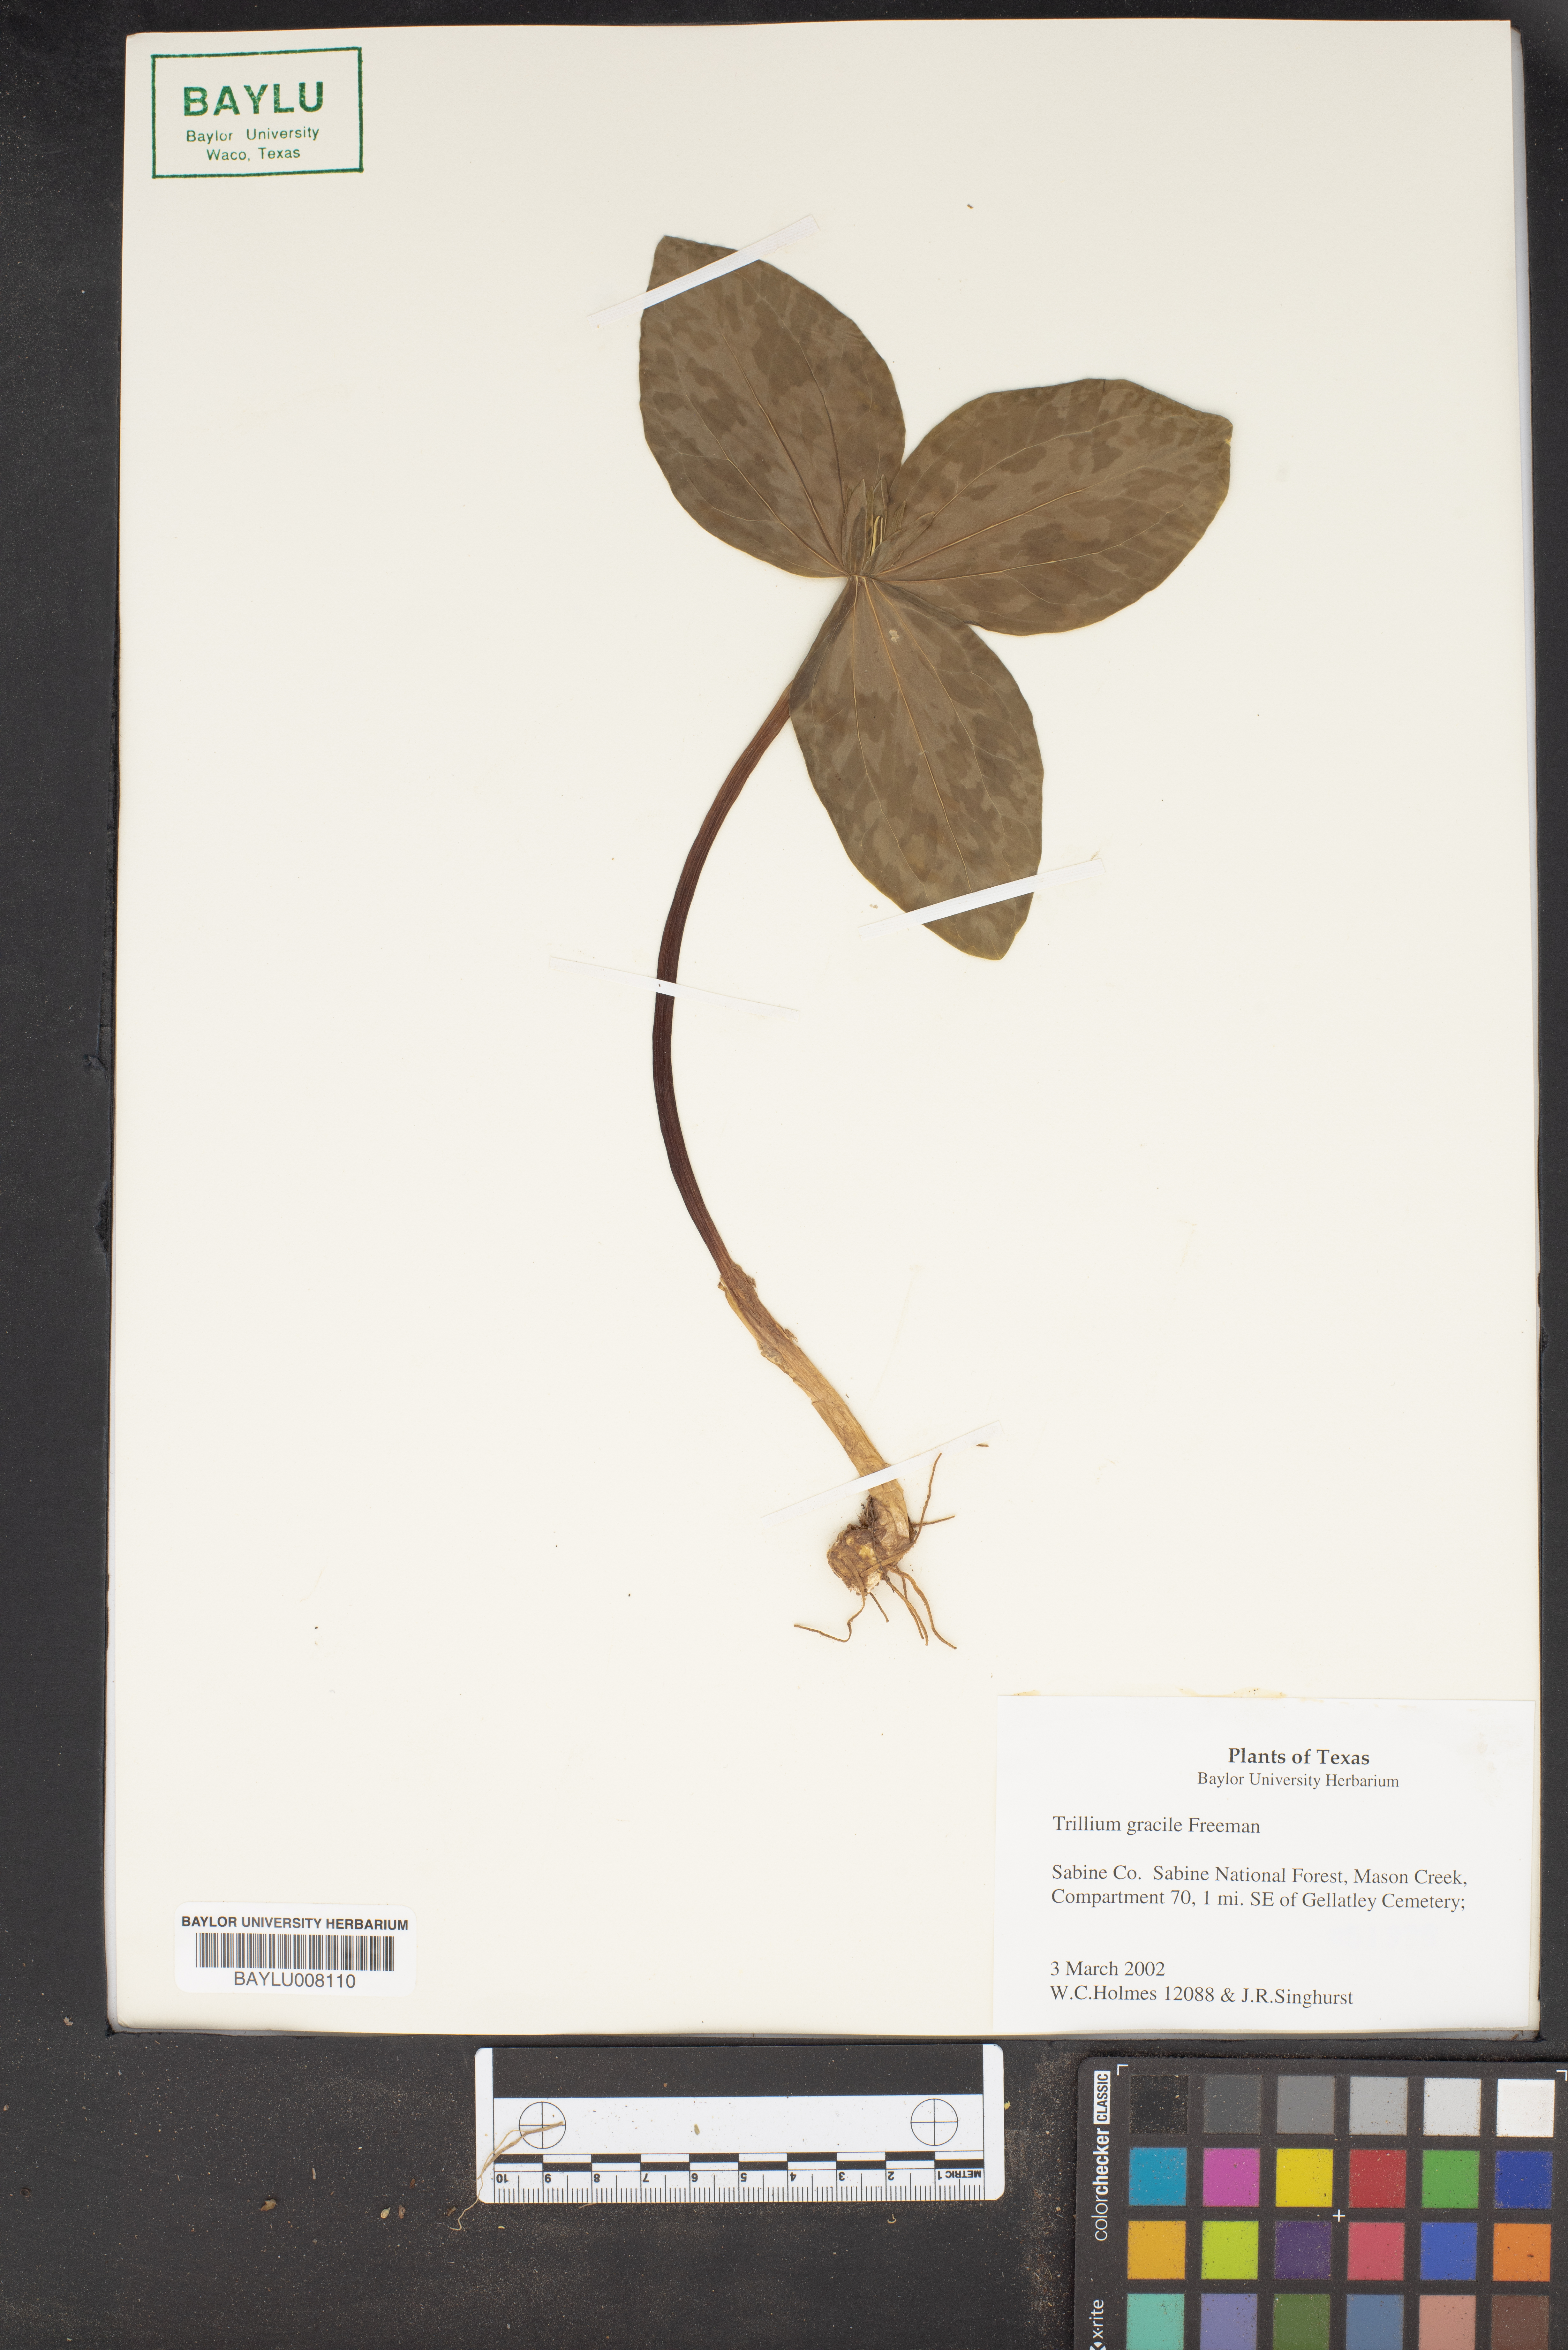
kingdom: Plantae
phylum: Tracheophyta
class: Liliopsida
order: Liliales
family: Melanthiaceae
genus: Trillium
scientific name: Trillium gracile
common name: Graceful trillium
